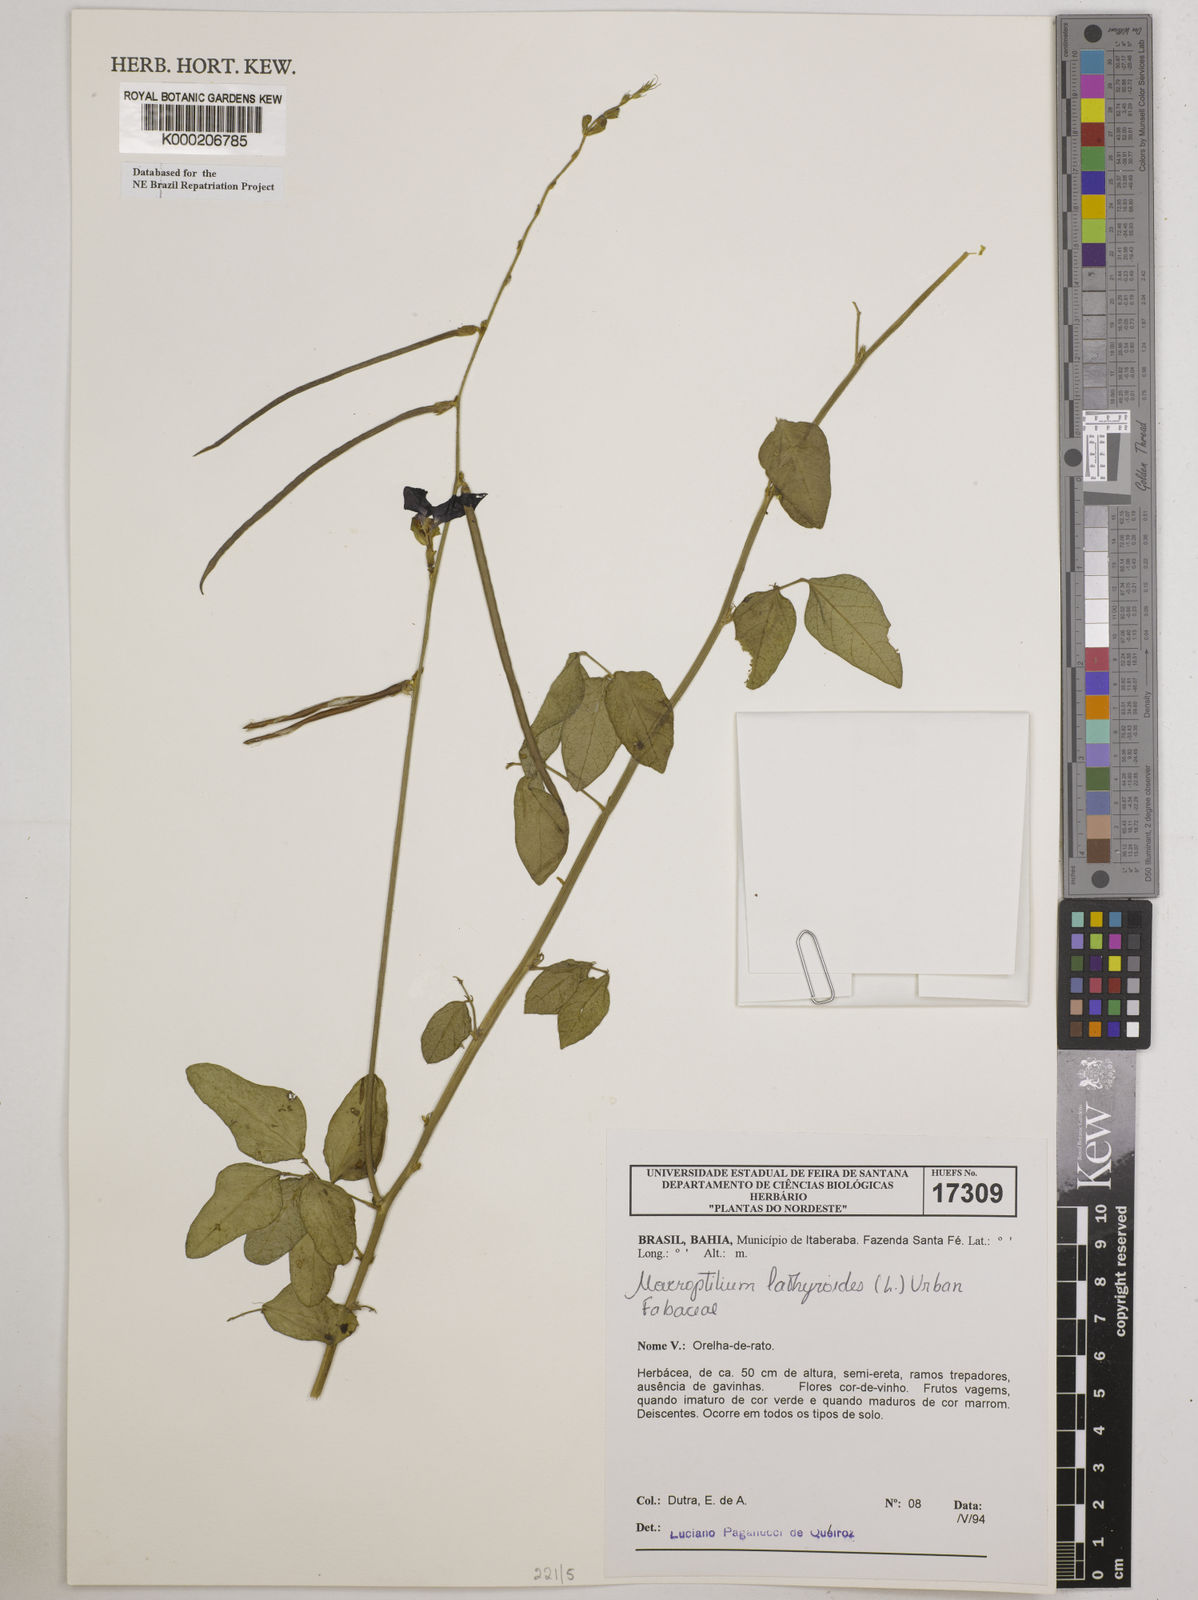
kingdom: Plantae
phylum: Tracheophyta
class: Magnoliopsida
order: Fabales
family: Fabaceae
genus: Macroptilium
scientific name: Macroptilium lathyroides
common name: Wild bushbean
